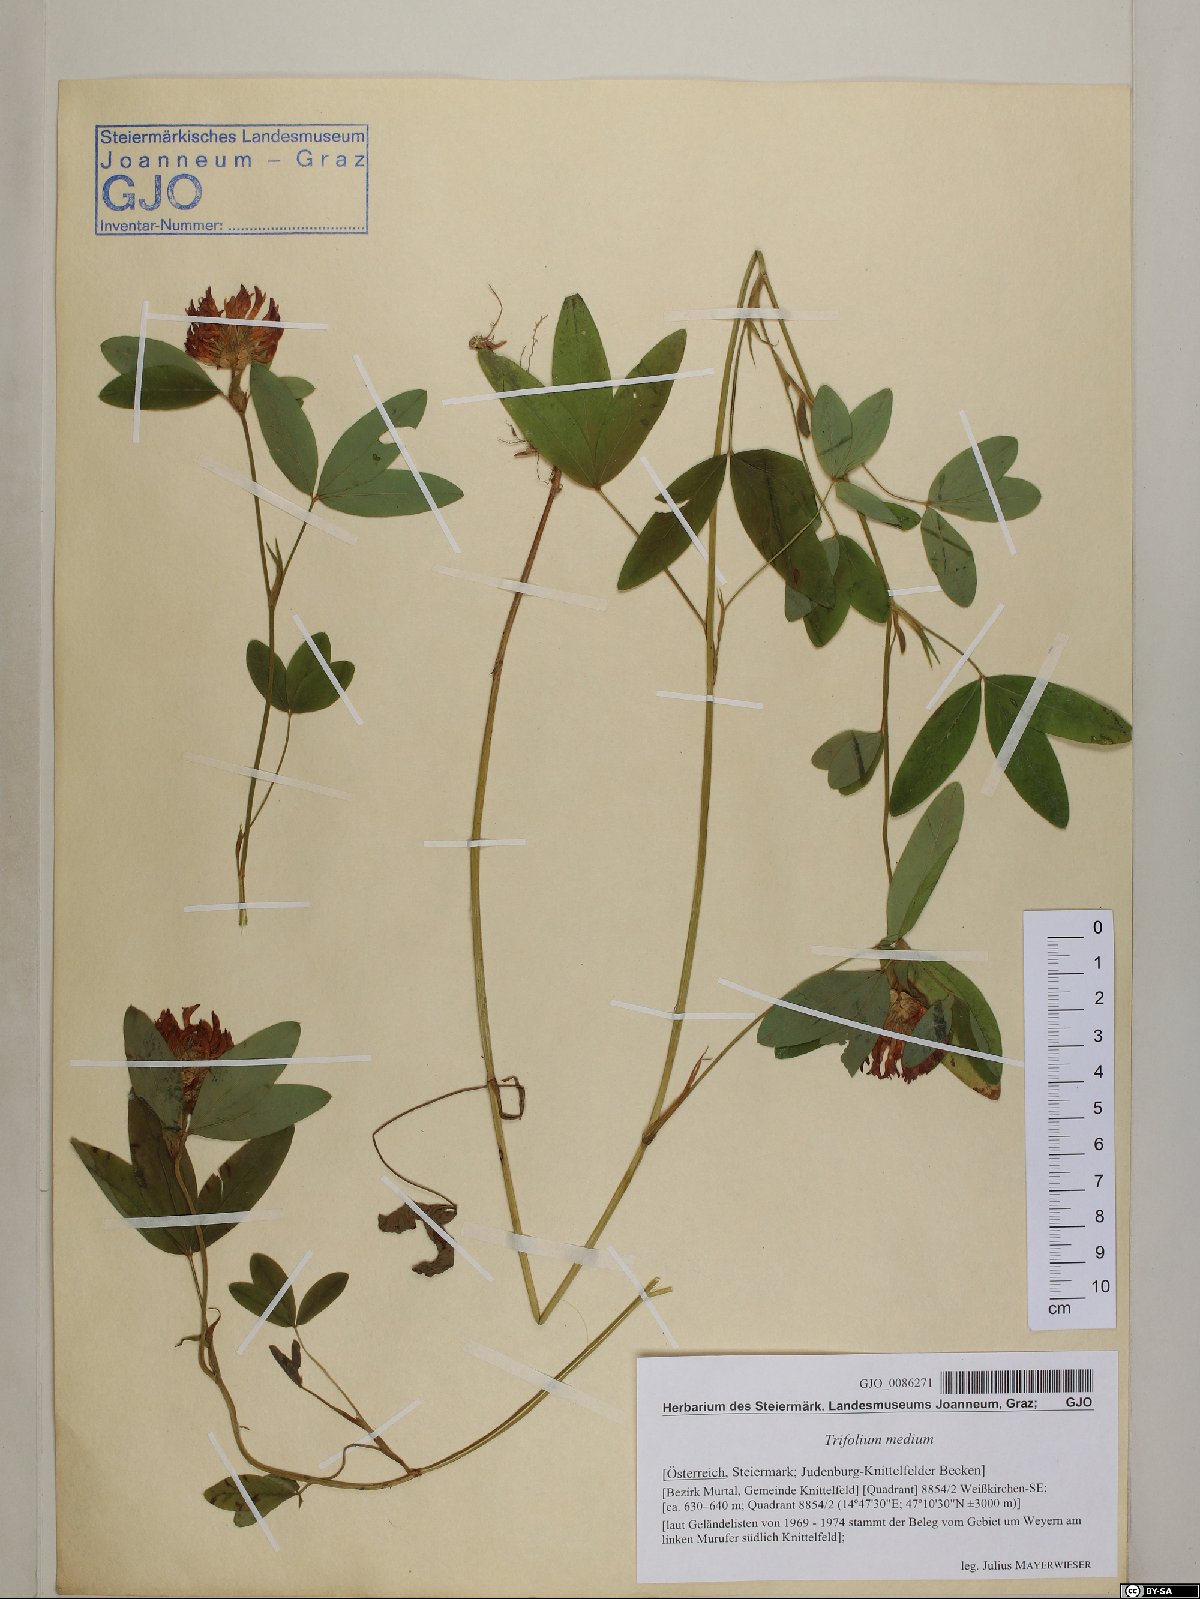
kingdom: Plantae
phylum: Tracheophyta
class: Magnoliopsida
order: Fabales
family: Fabaceae
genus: Trifolium
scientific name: Trifolium medium
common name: Zigzag clover
